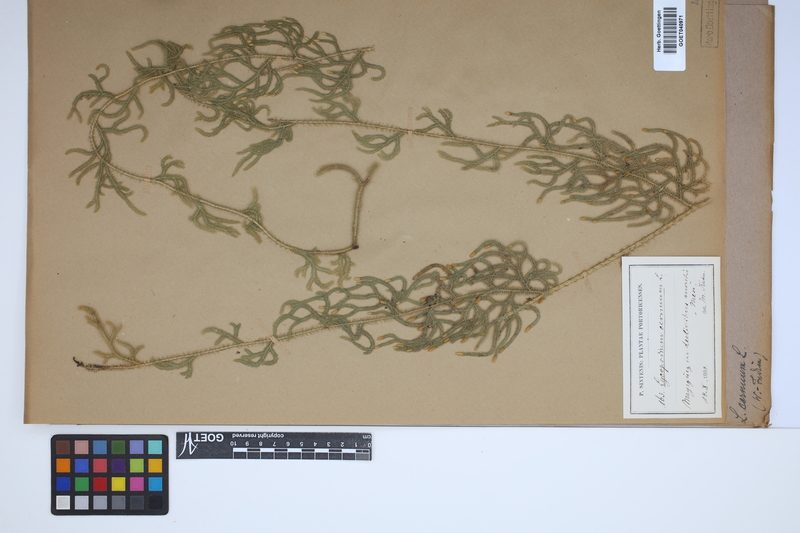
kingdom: Plantae
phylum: Tracheophyta
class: Lycopodiopsida
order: Lycopodiales
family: Lycopodiaceae
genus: Palhinhaea
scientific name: Palhinhaea cernua
